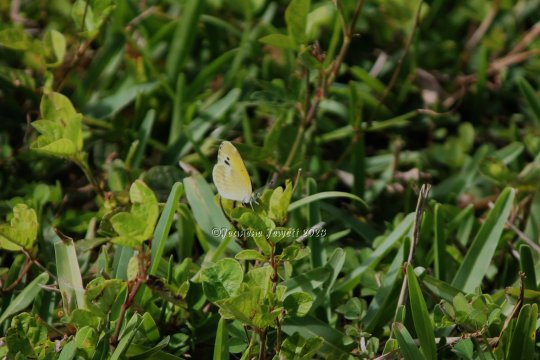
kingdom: Animalia
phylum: Arthropoda
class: Insecta
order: Lepidoptera
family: Pieridae
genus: Nathalis
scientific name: Nathalis iole
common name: Dainty Sulphur
